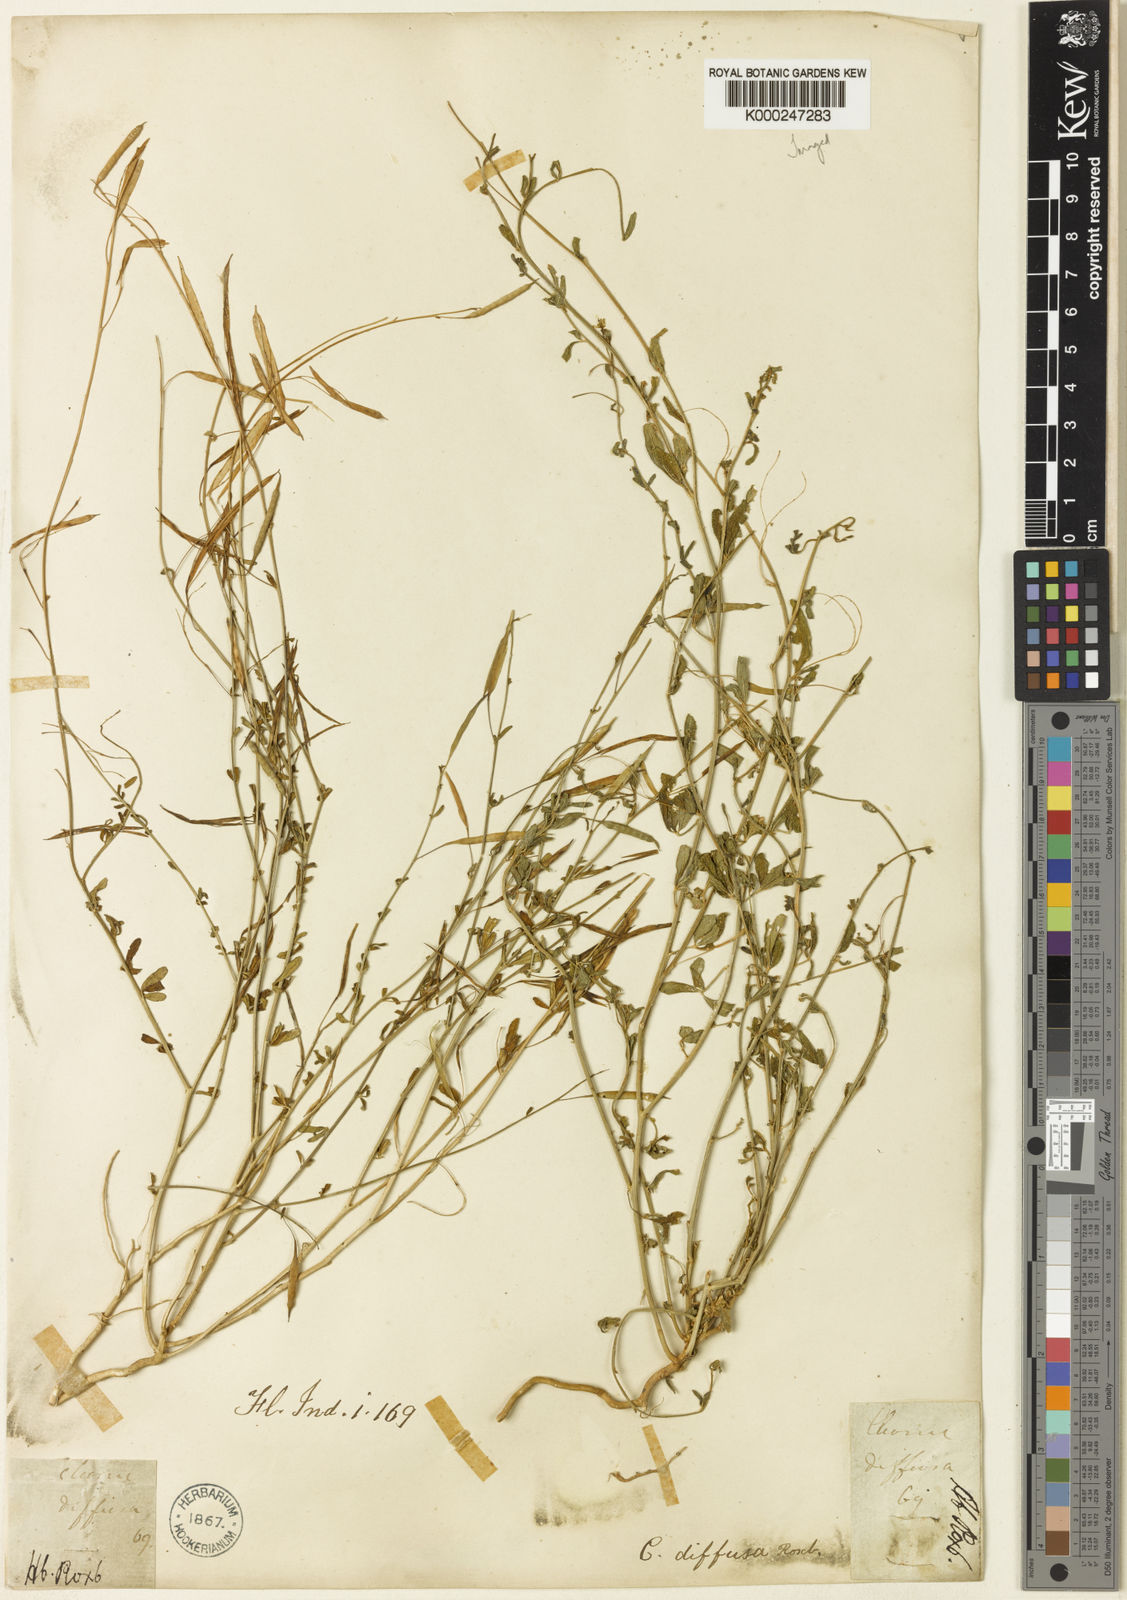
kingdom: Plantae
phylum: Tracheophyta
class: Magnoliopsida
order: Brassicales
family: Cleomaceae
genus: Corynandra
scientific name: Corynandra aspera
